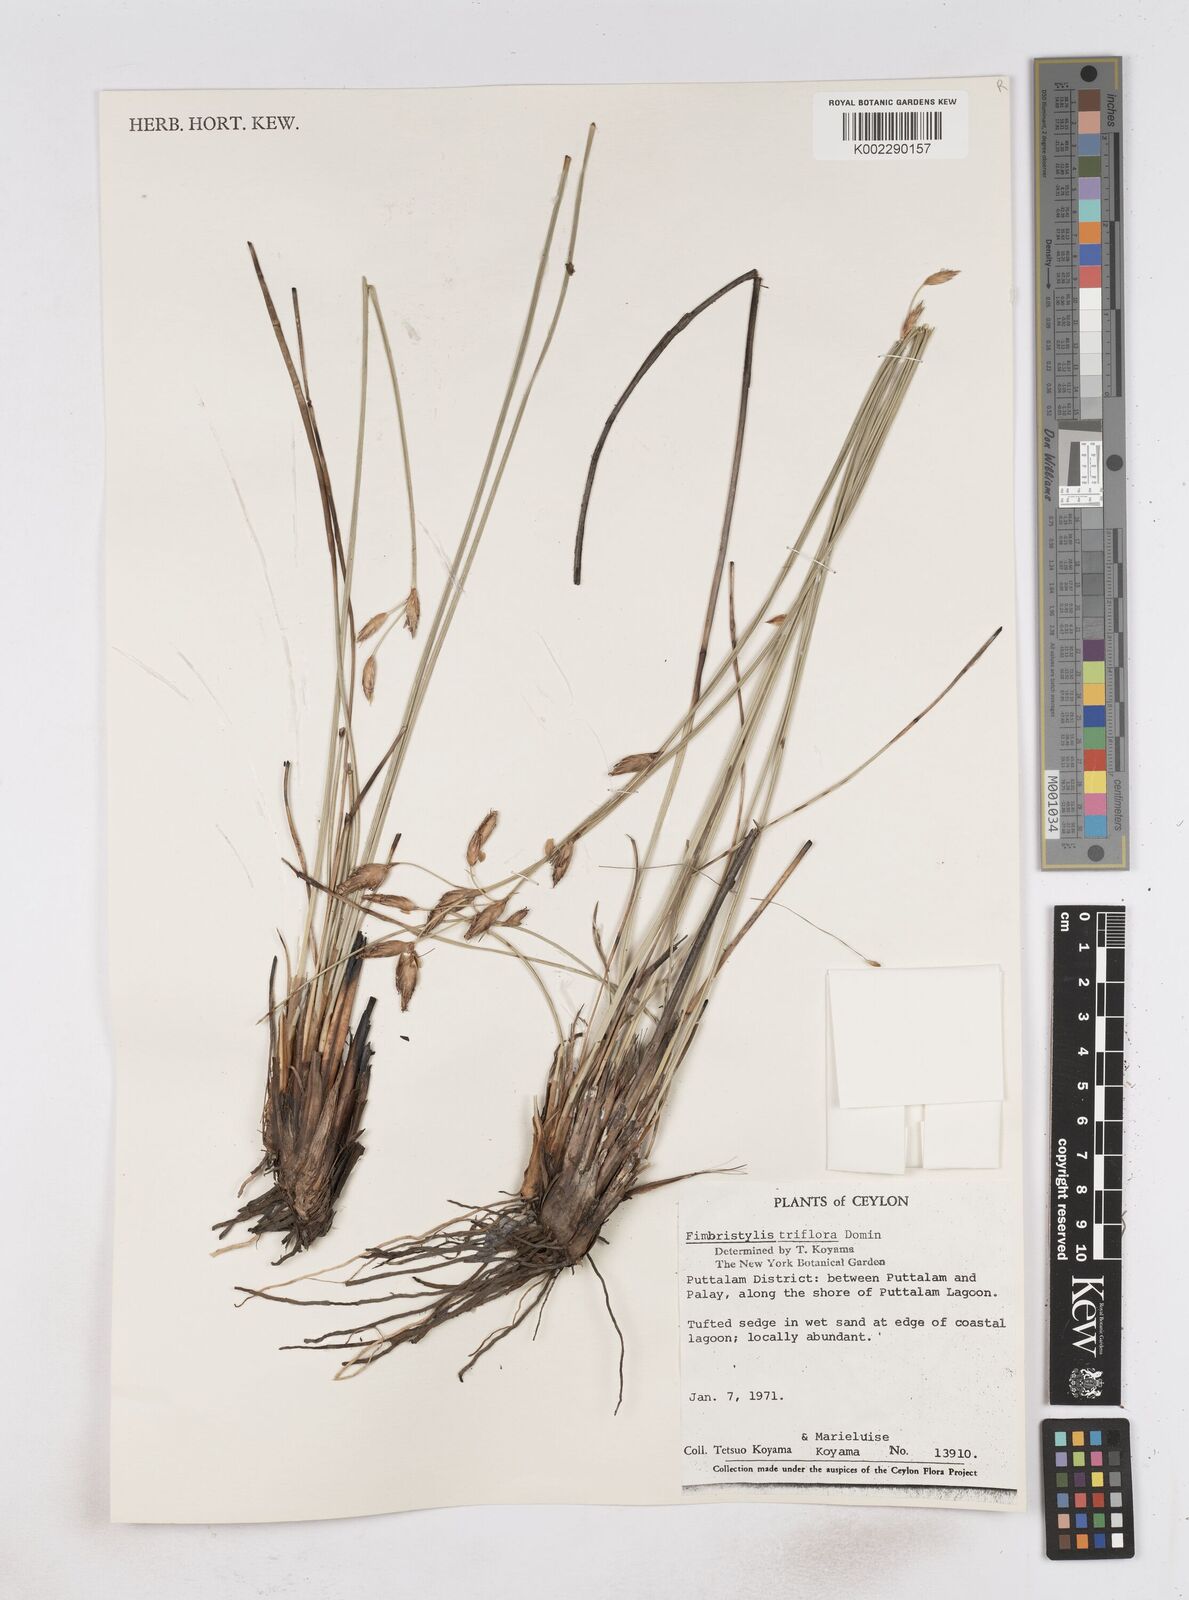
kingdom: Plantae
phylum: Tracheophyta
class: Liliopsida
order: Poales
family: Cyperaceae
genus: Abildgaardia
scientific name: Abildgaardia triflora
